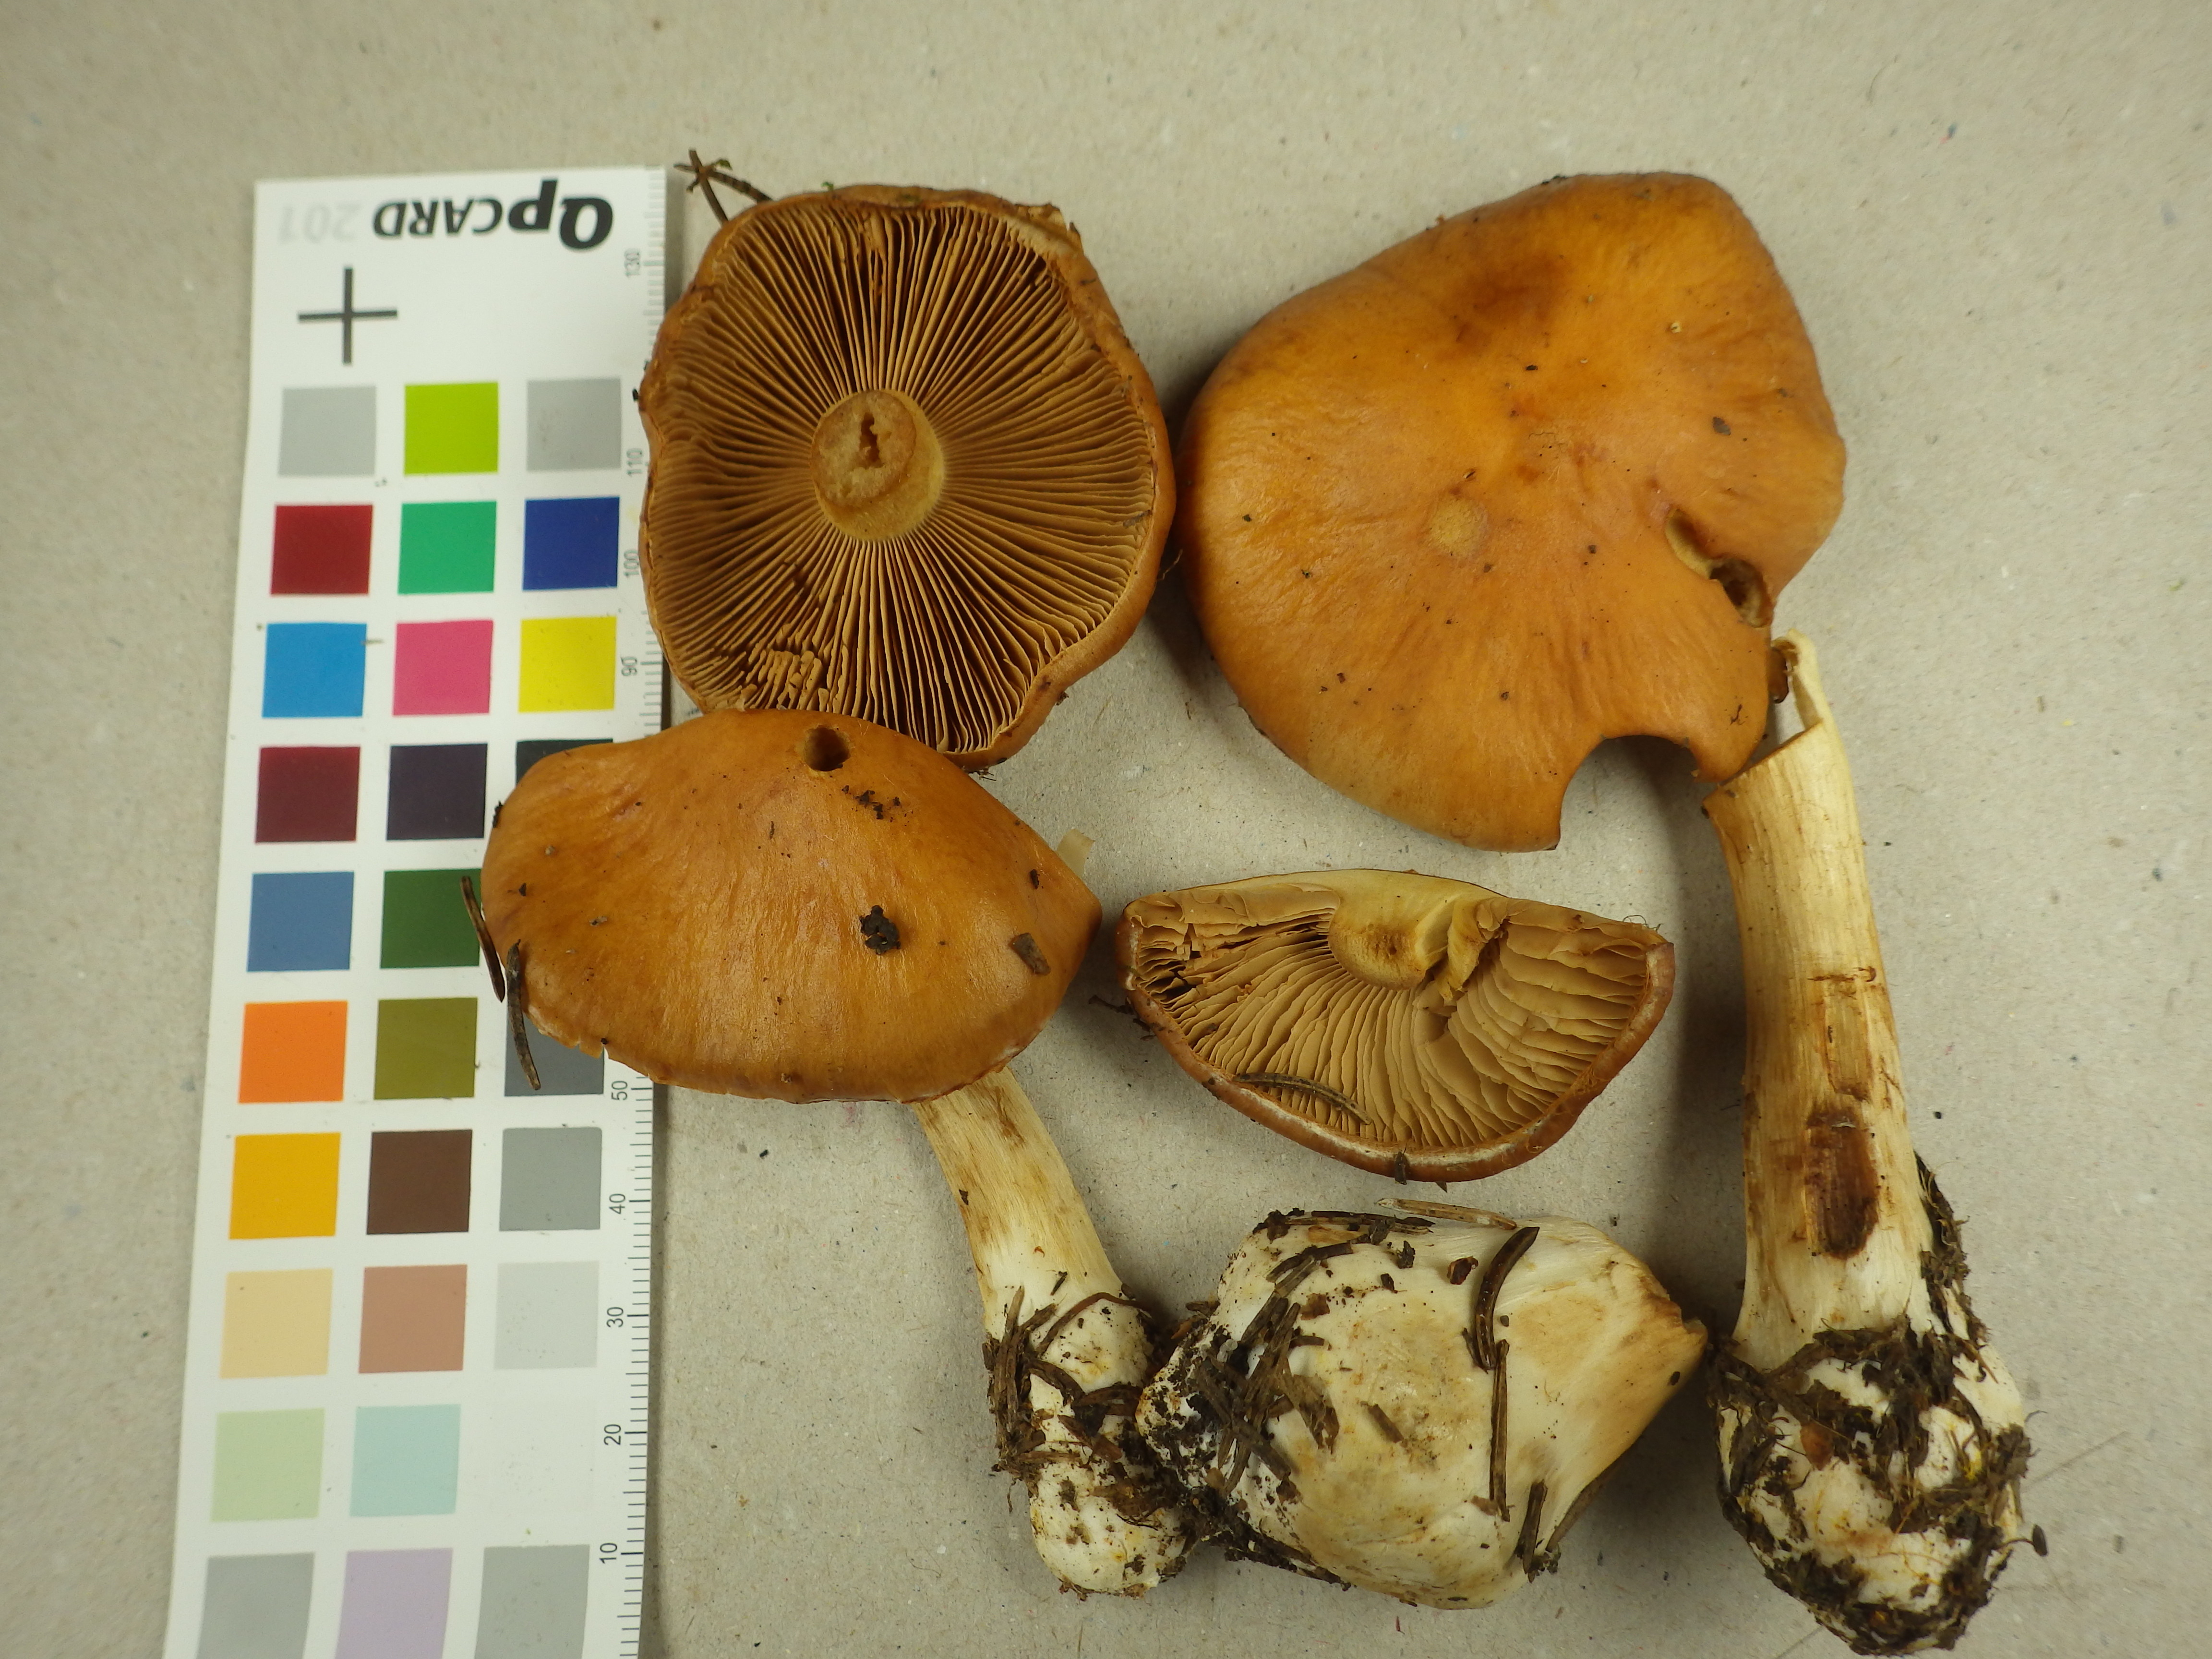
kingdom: Fungi
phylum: Basidiomycota
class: Agaricomycetes
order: Agaricales
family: Cortinariaceae
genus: Thaxterogaster
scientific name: Thaxterogaster multiformis
